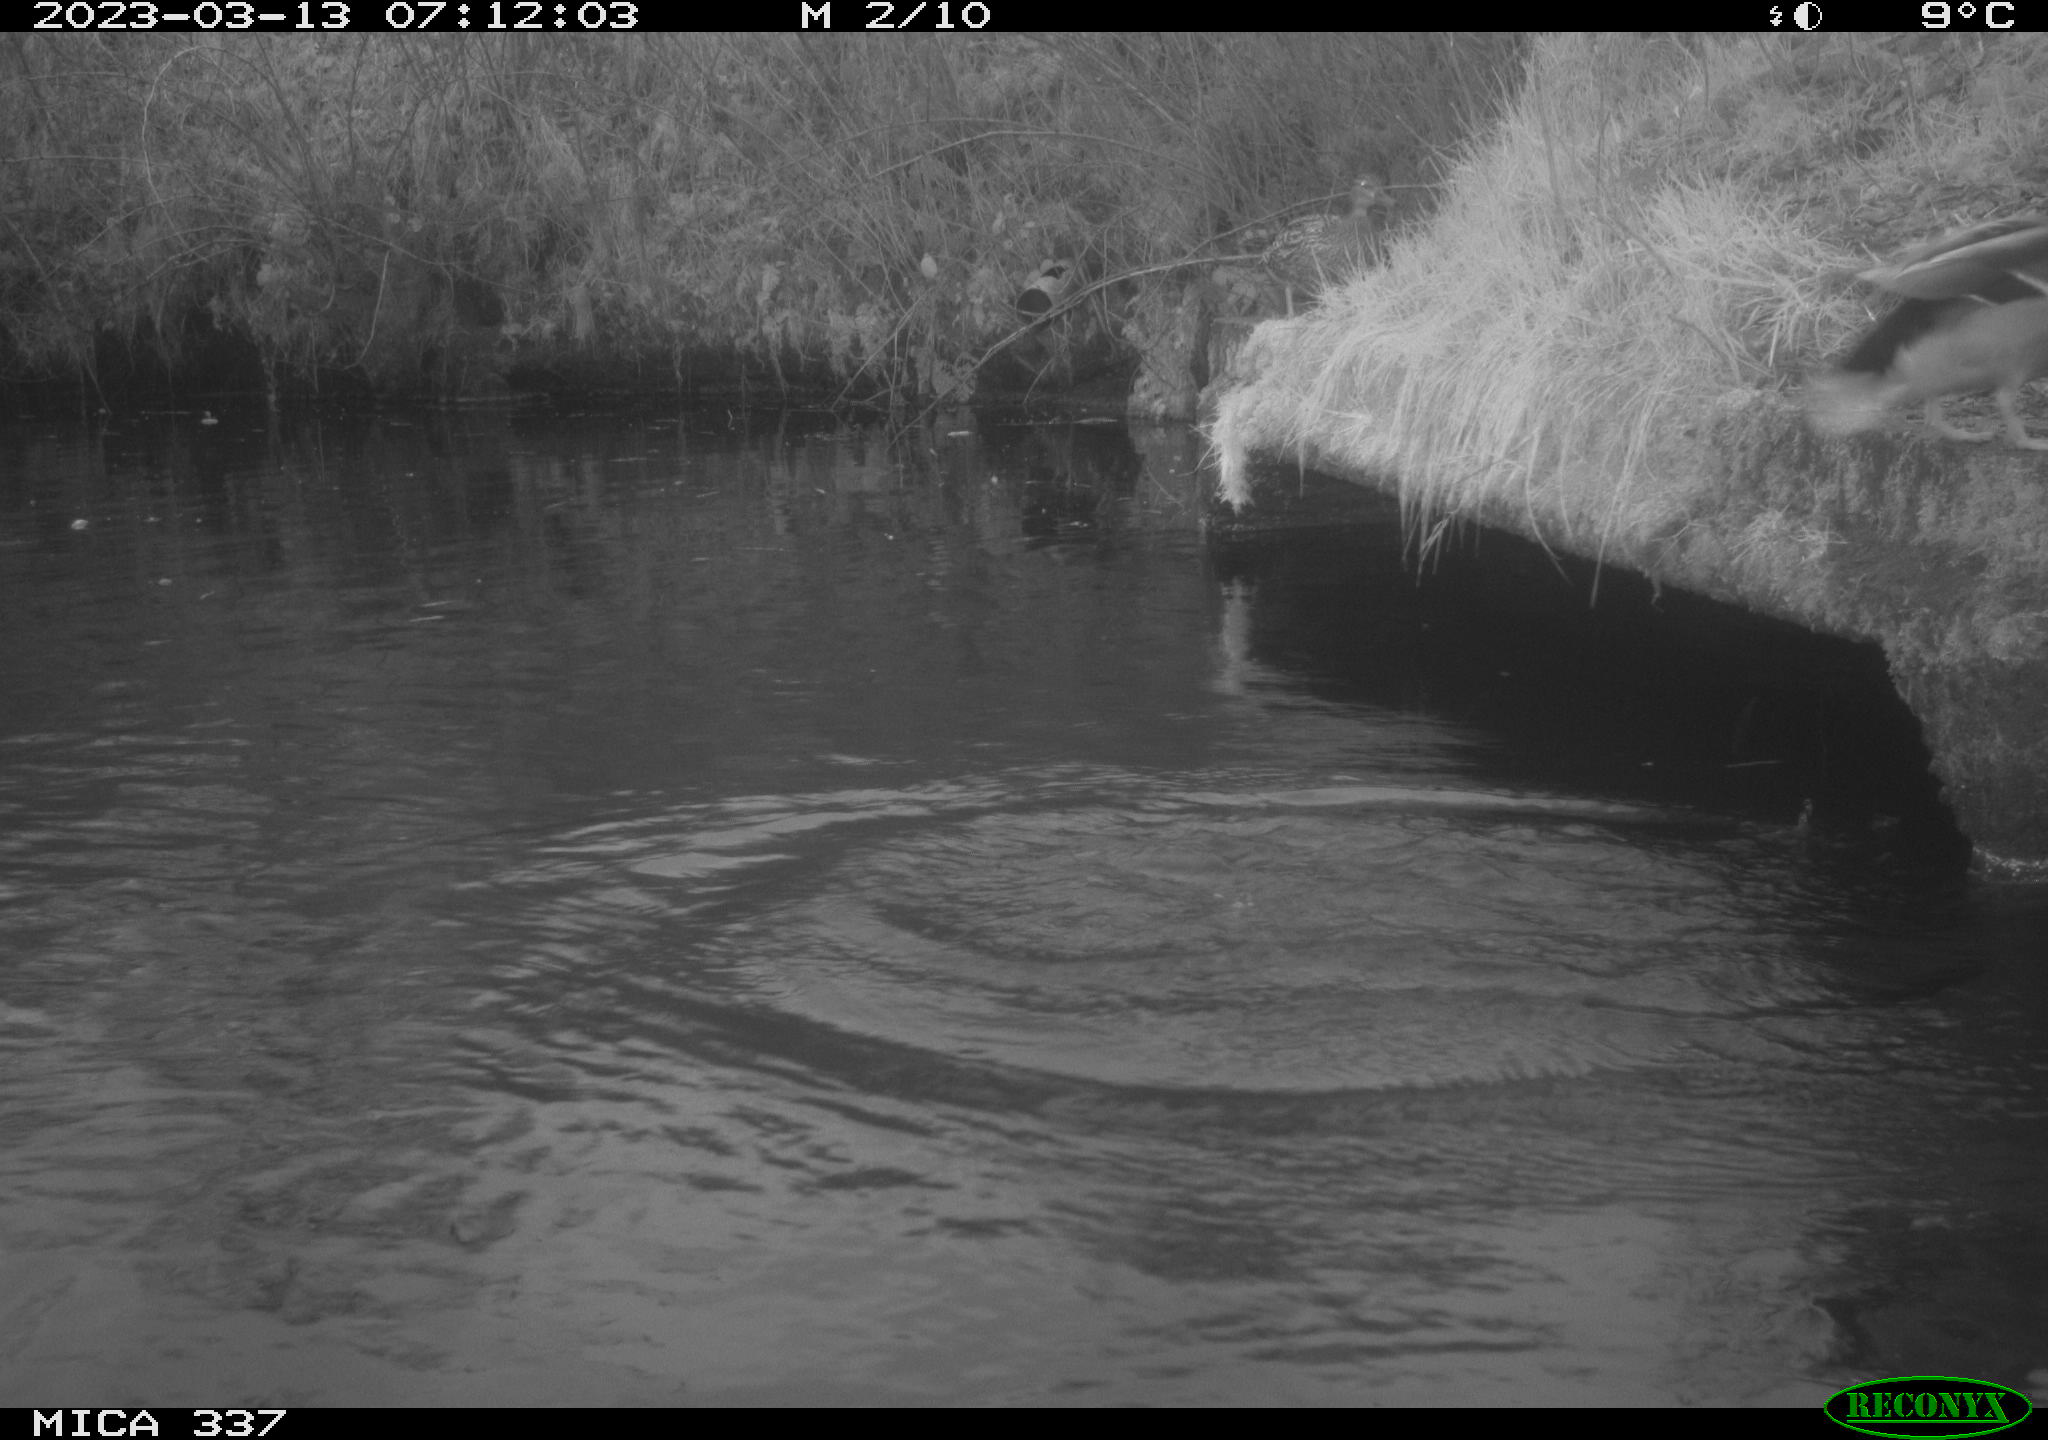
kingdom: Animalia
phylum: Chordata
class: Aves
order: Anseriformes
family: Anatidae
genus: Anas
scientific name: Anas
